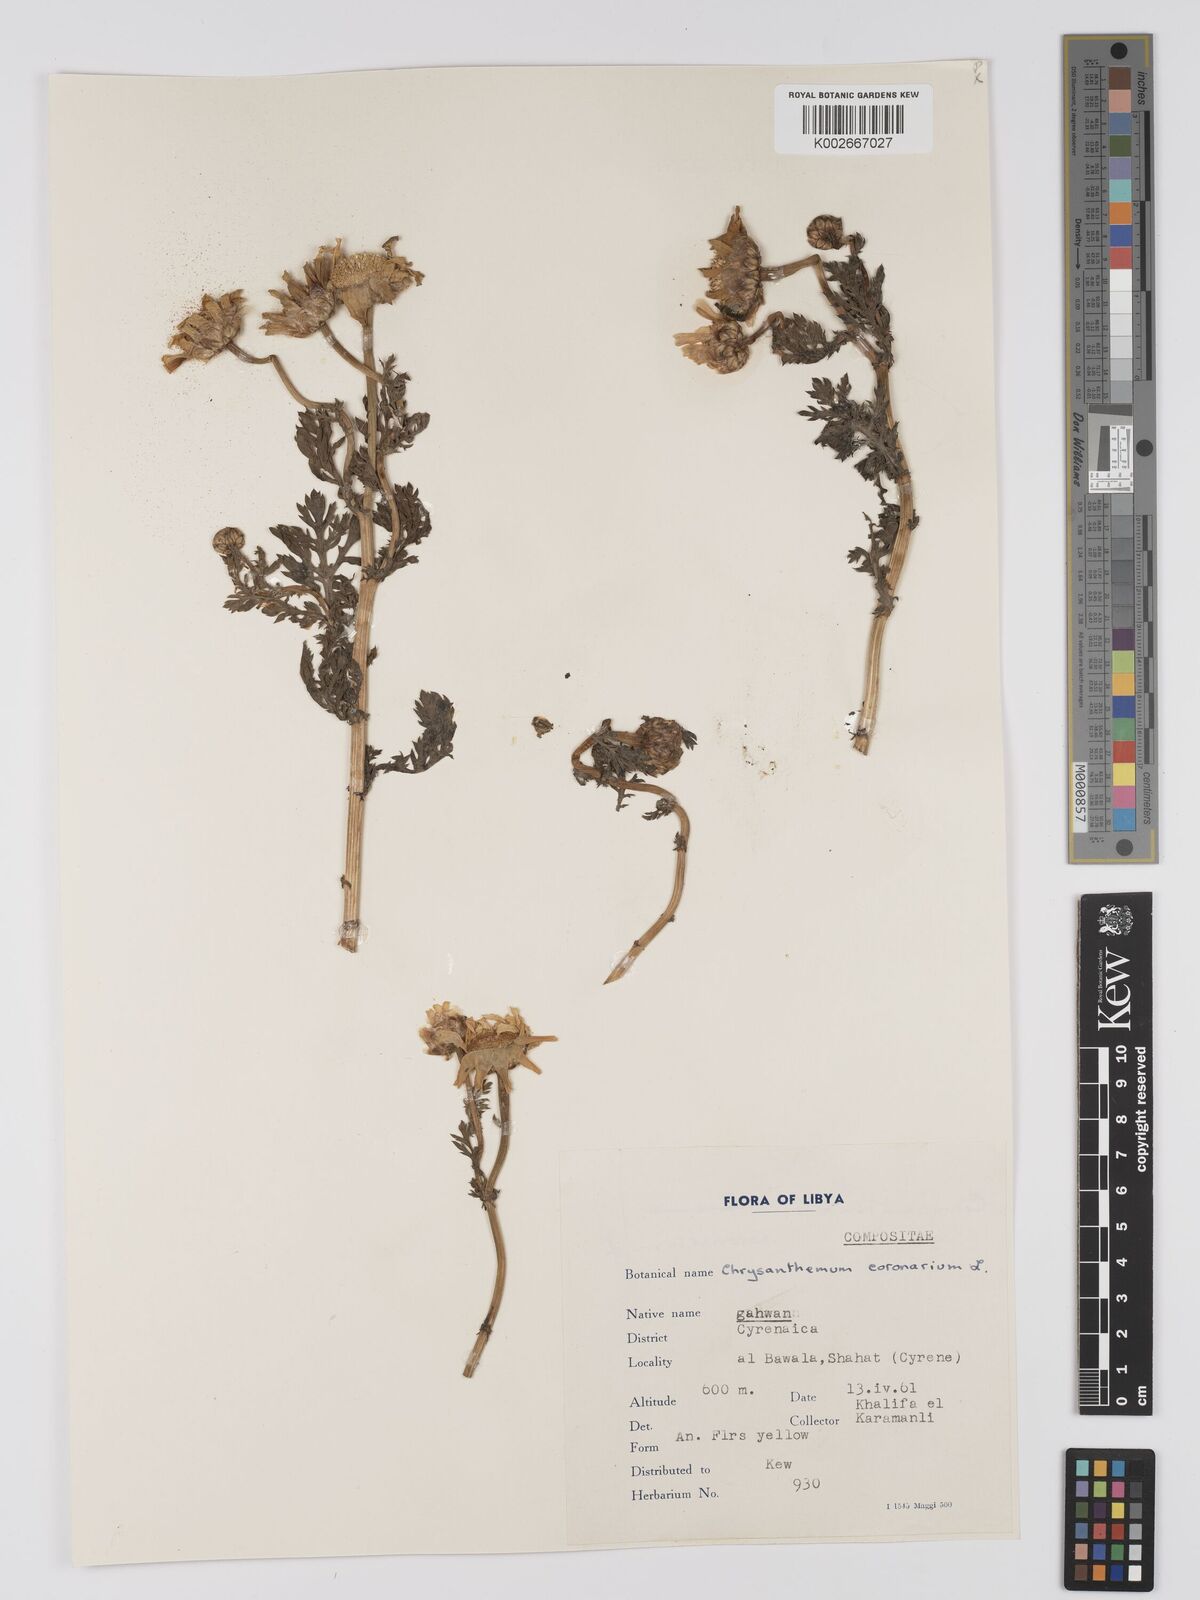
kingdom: Plantae
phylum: Tracheophyta
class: Magnoliopsida
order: Asterales
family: Asteraceae
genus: Glebionis
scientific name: Glebionis coronaria
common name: Crowndaisy
